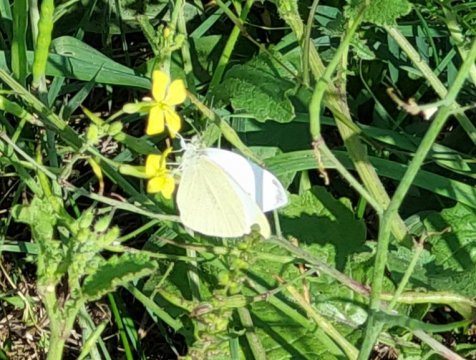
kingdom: Animalia
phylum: Arthropoda
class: Insecta
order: Lepidoptera
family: Pieridae
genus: Pieris
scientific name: Pieris rapae
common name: Cabbage White
